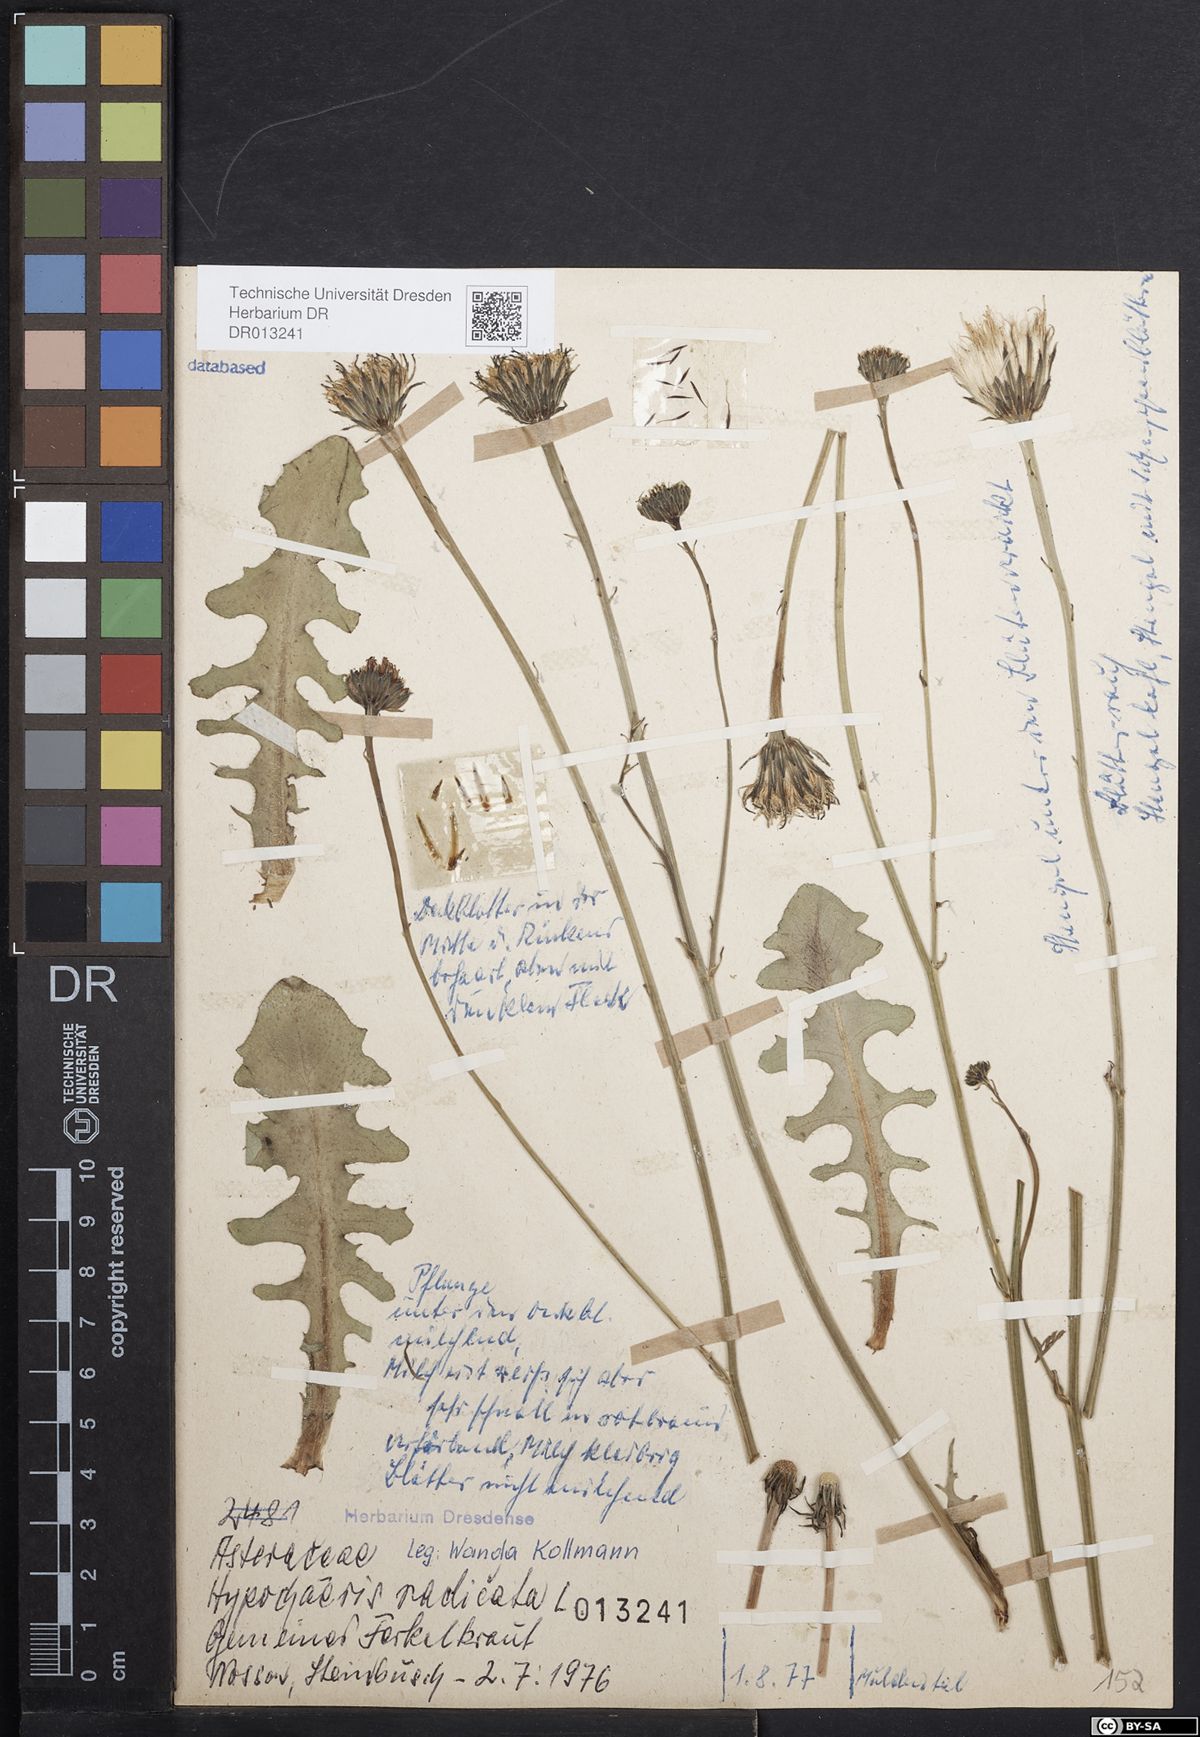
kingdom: Plantae
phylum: Tracheophyta
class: Magnoliopsida
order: Asterales
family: Asteraceae
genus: Hypochaeris
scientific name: Hypochaeris radicata
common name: Flatweed
